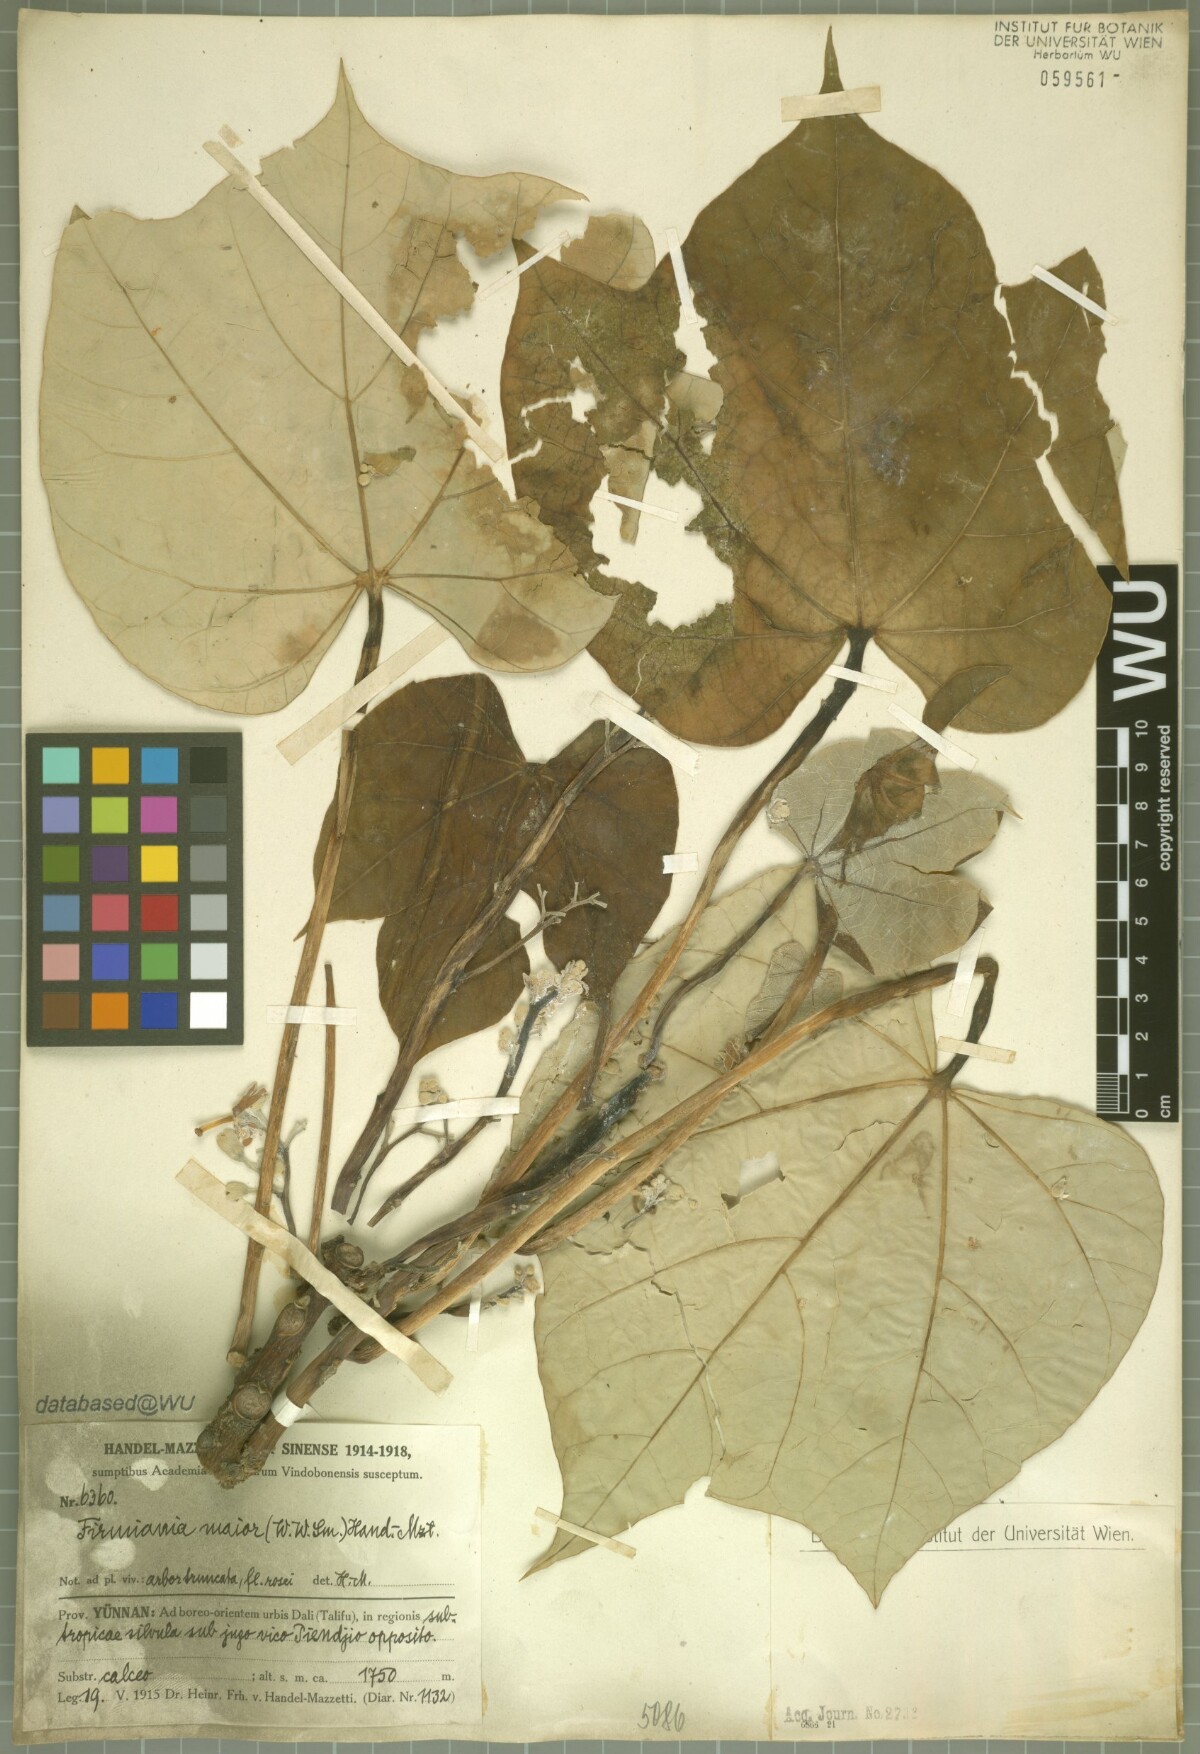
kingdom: Plantae
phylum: Tracheophyta
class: Magnoliopsida
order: Malvales
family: Malvaceae
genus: Firmiana
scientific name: Firmiana major
